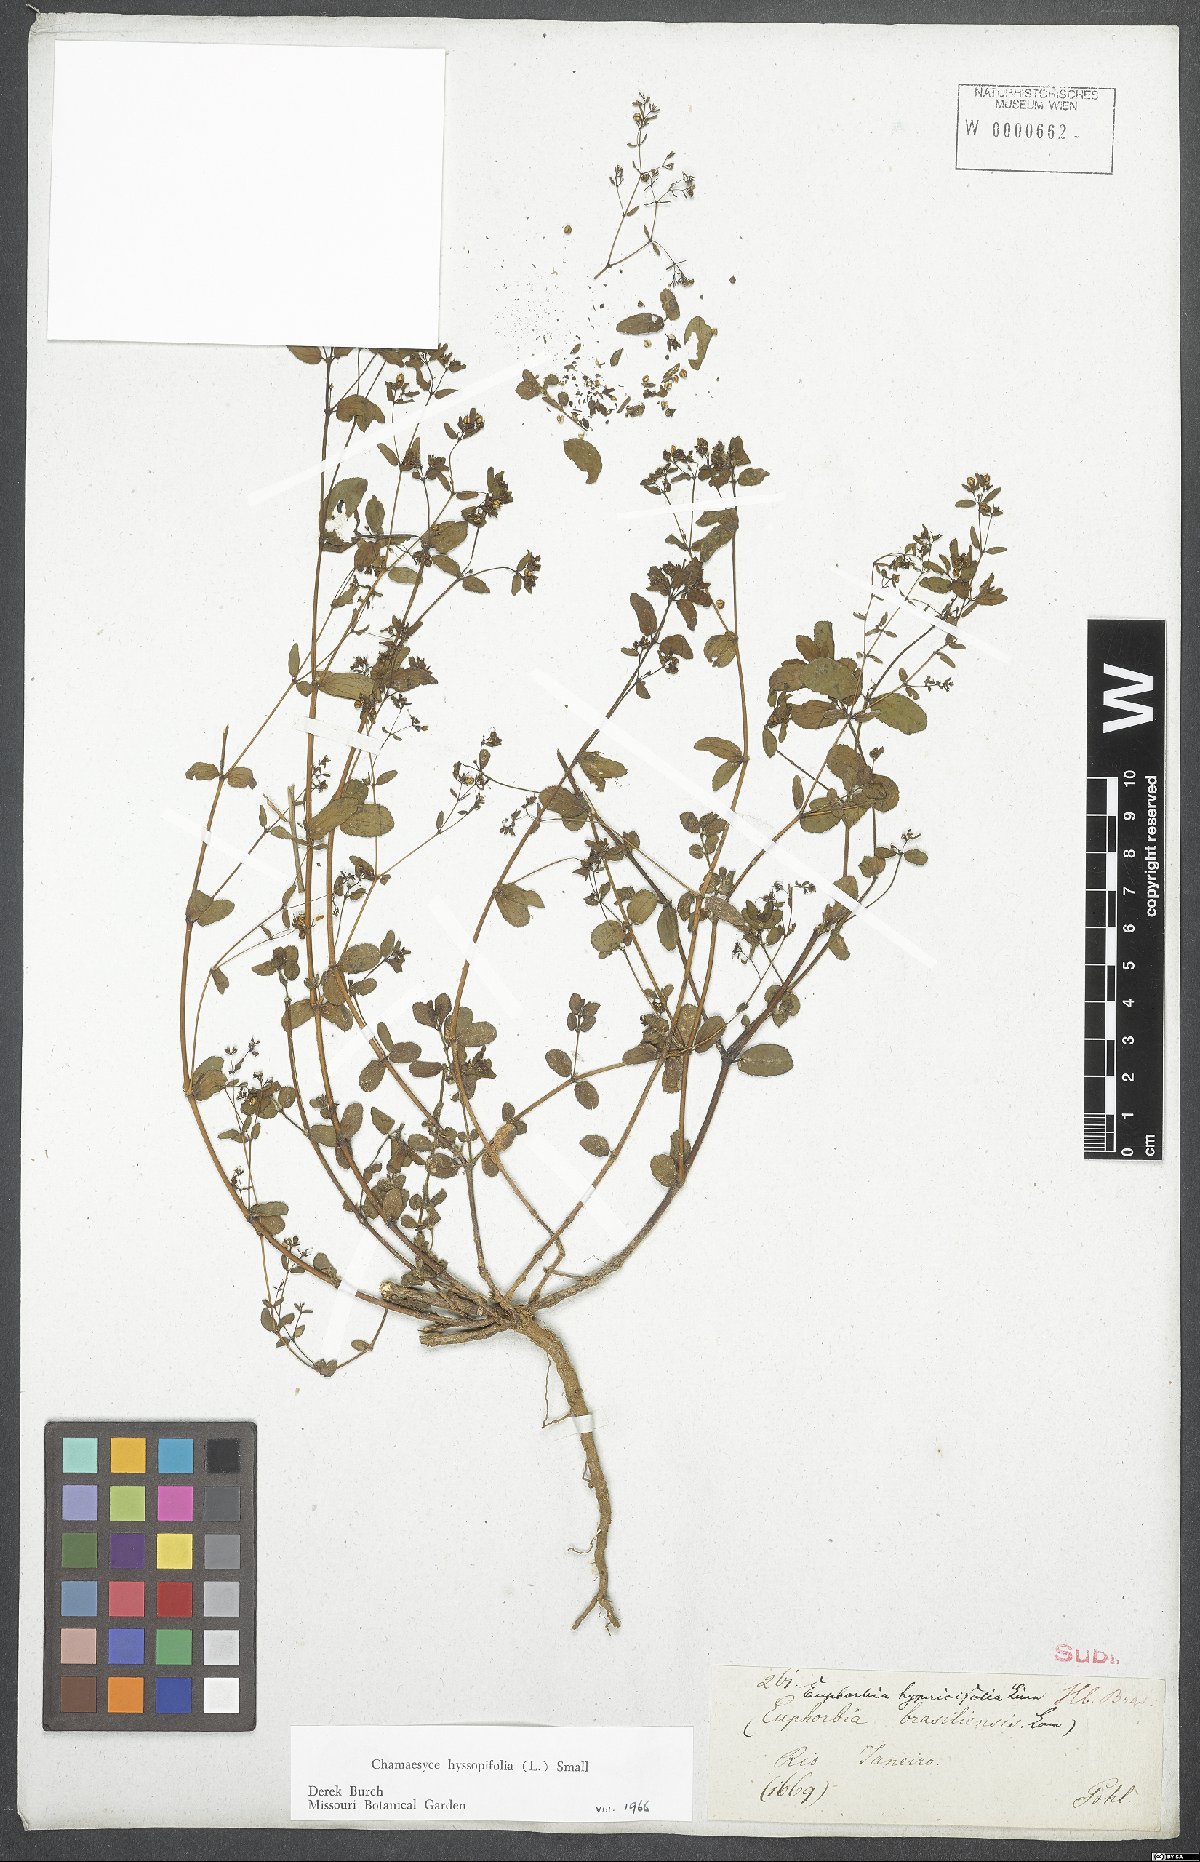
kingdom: Plantae
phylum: Tracheophyta
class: Magnoliopsida
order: Malpighiales
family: Euphorbiaceae
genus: Euphorbia
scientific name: Euphorbia hyssopifolia
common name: Hyssopleaf sandmat
